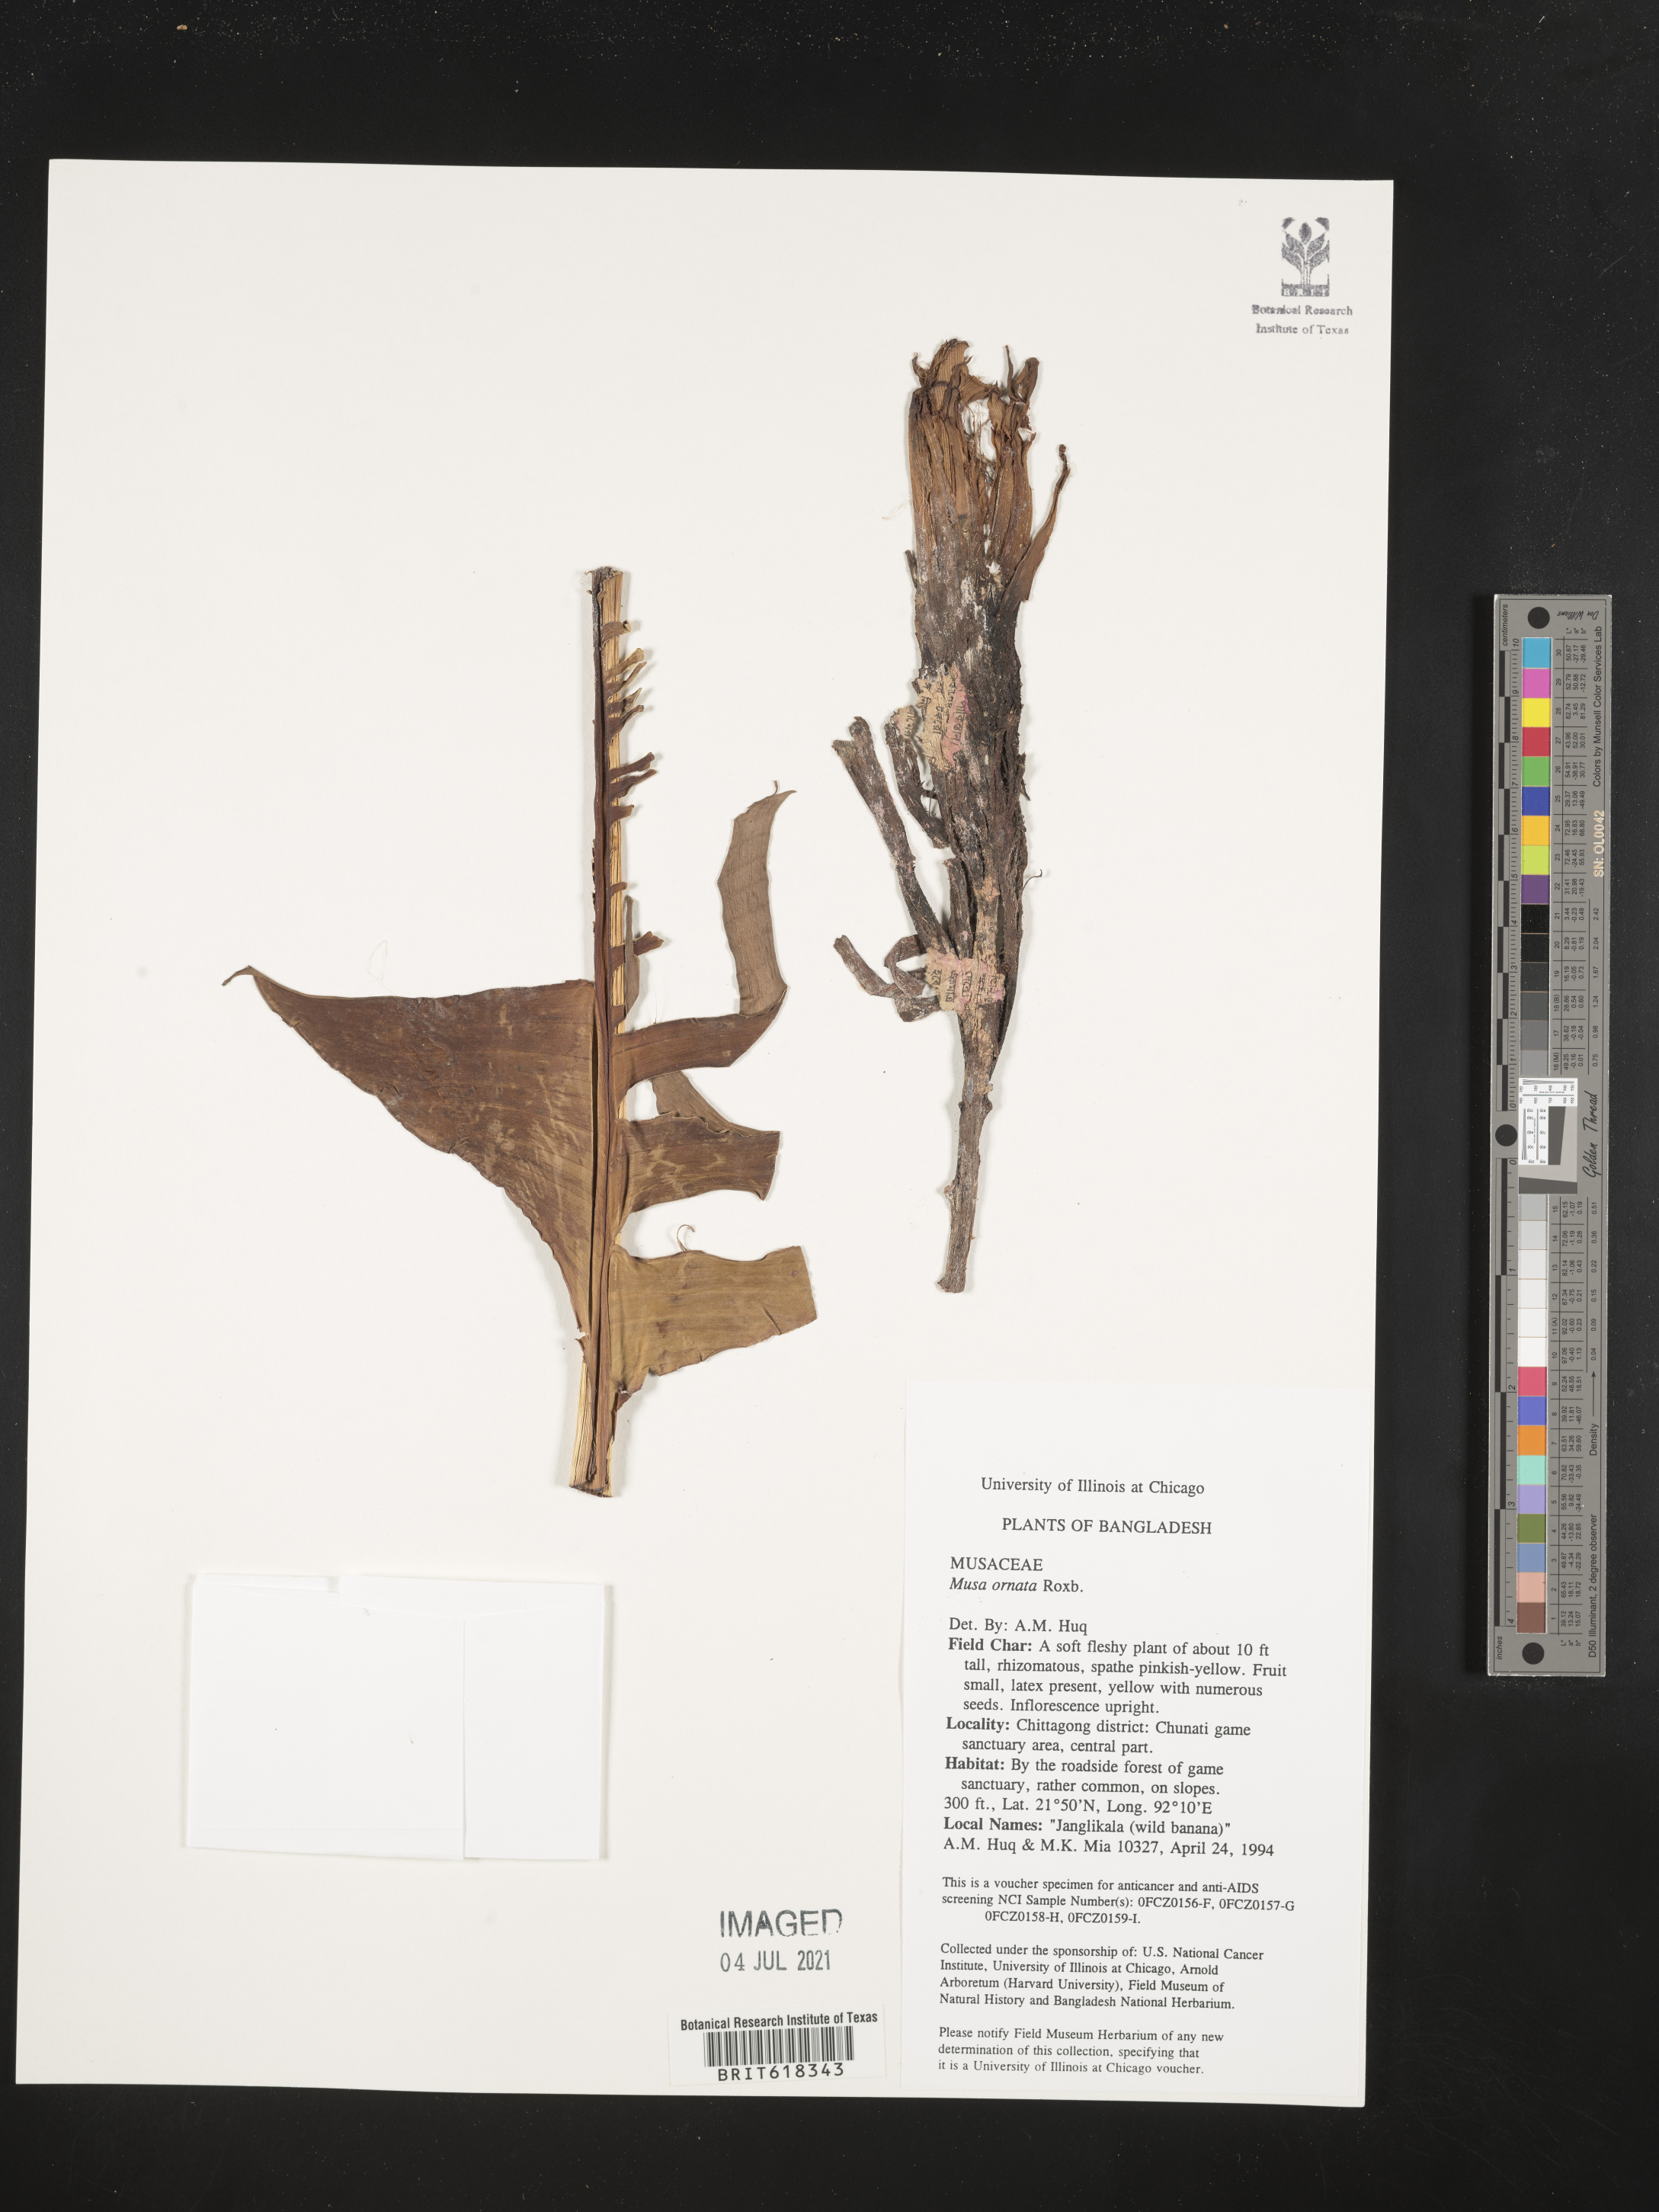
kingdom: Plantae
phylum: Tracheophyta
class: Liliopsida
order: Zingiberales
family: Musaceae
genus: Musa
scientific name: Musa ornata
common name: Flowering banana
